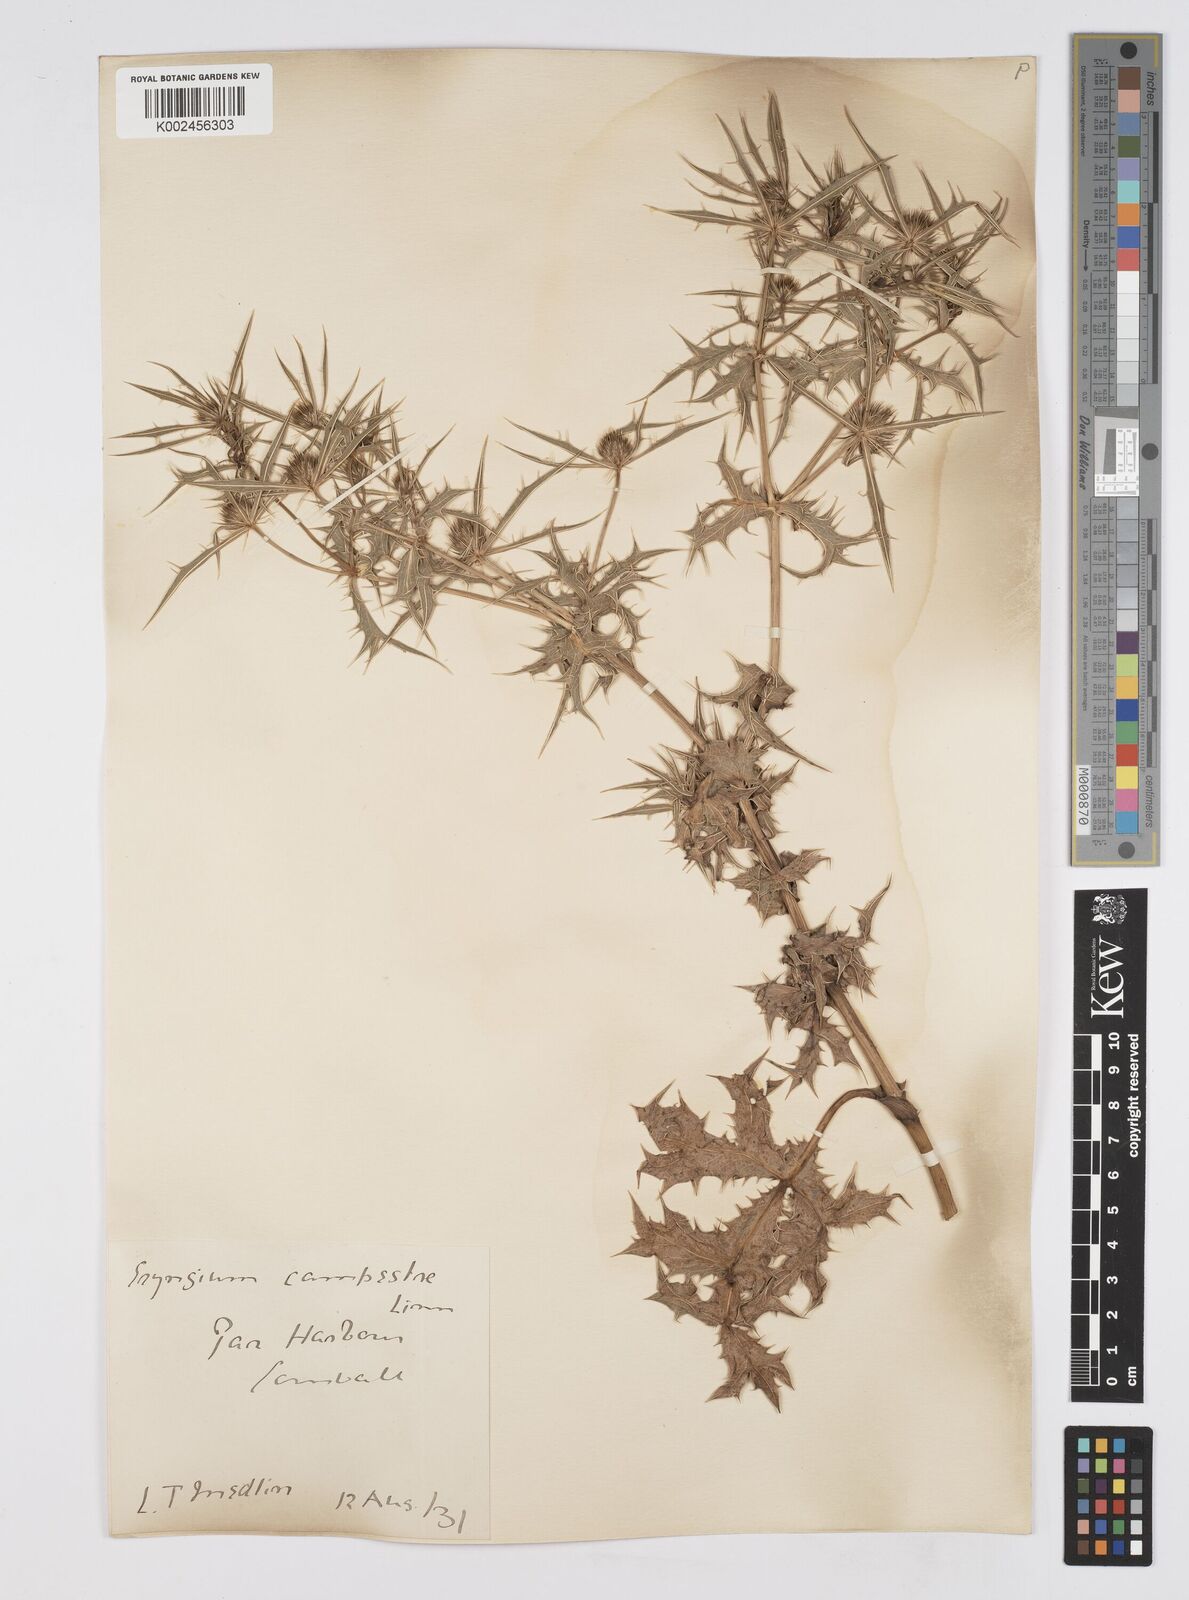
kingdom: Plantae
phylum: Tracheophyta
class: Magnoliopsida
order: Apiales
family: Apiaceae
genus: Eryngium
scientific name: Eryngium campestre
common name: Field eryngo
